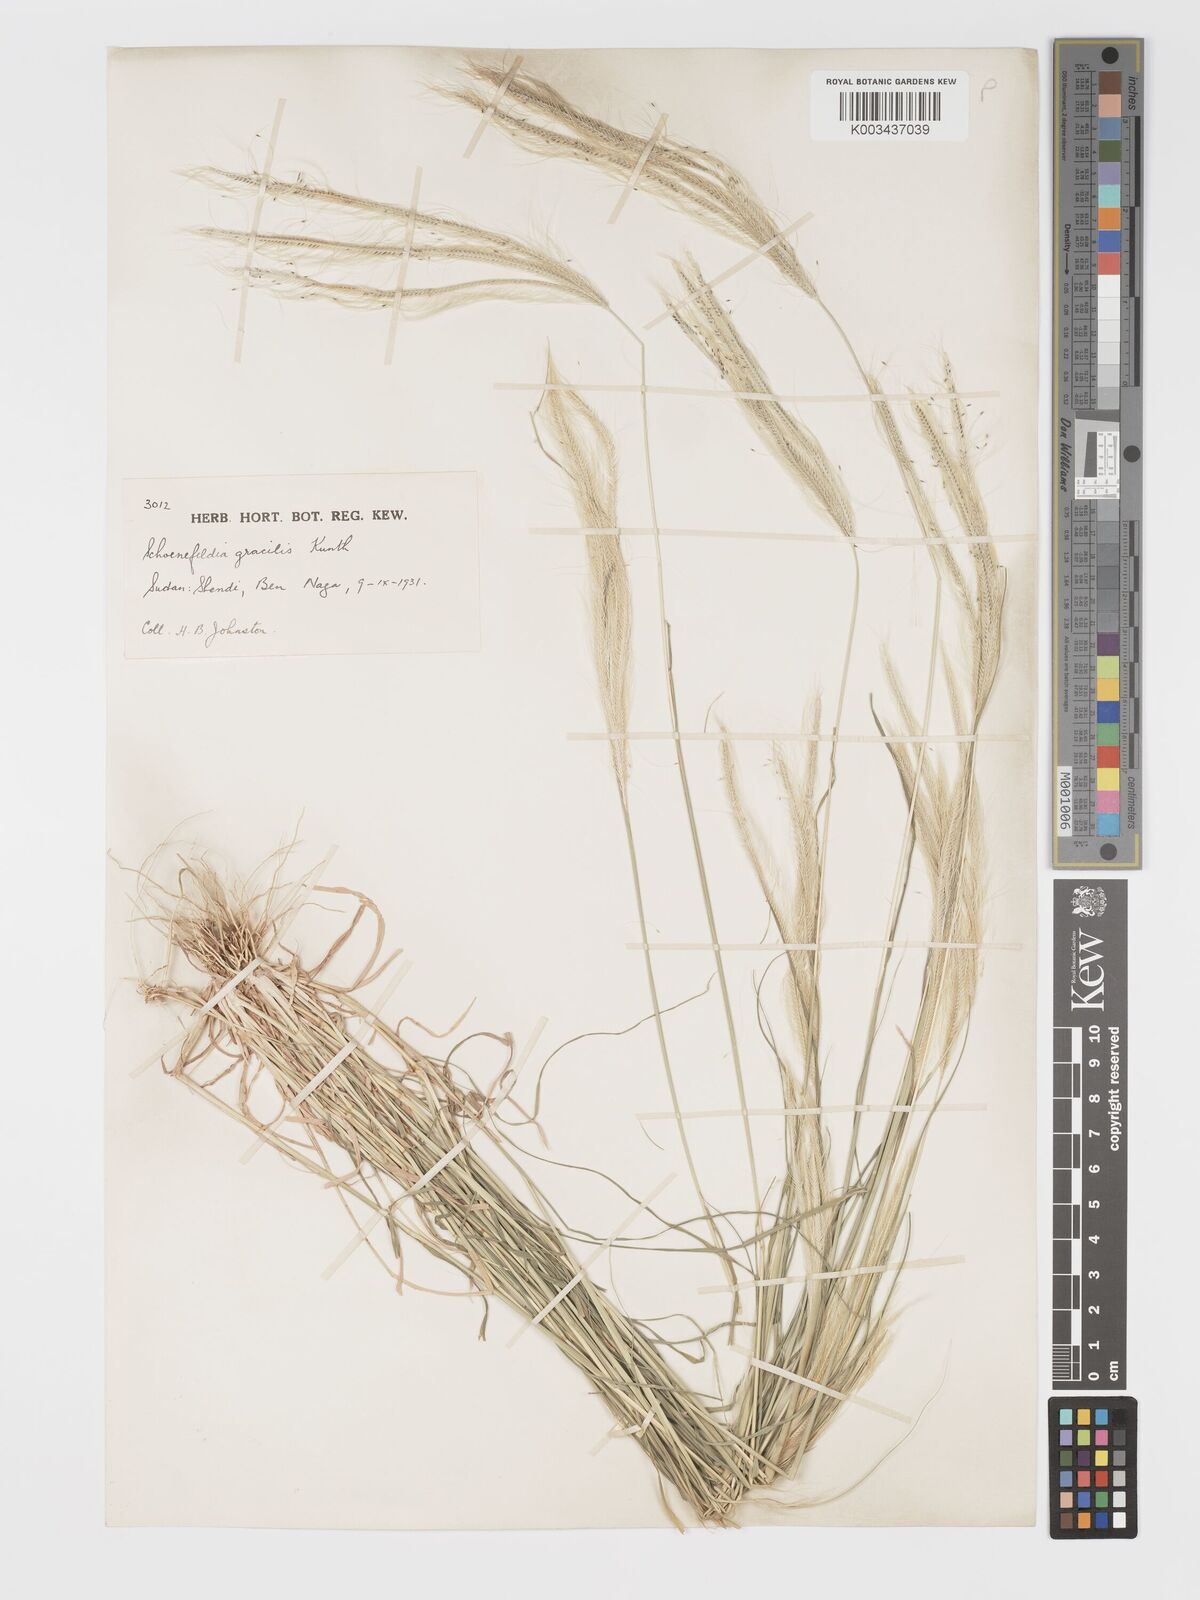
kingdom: Plantae
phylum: Tracheophyta
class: Liliopsida
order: Poales
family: Poaceae
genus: Schoenefeldia
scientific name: Schoenefeldia gracilis
